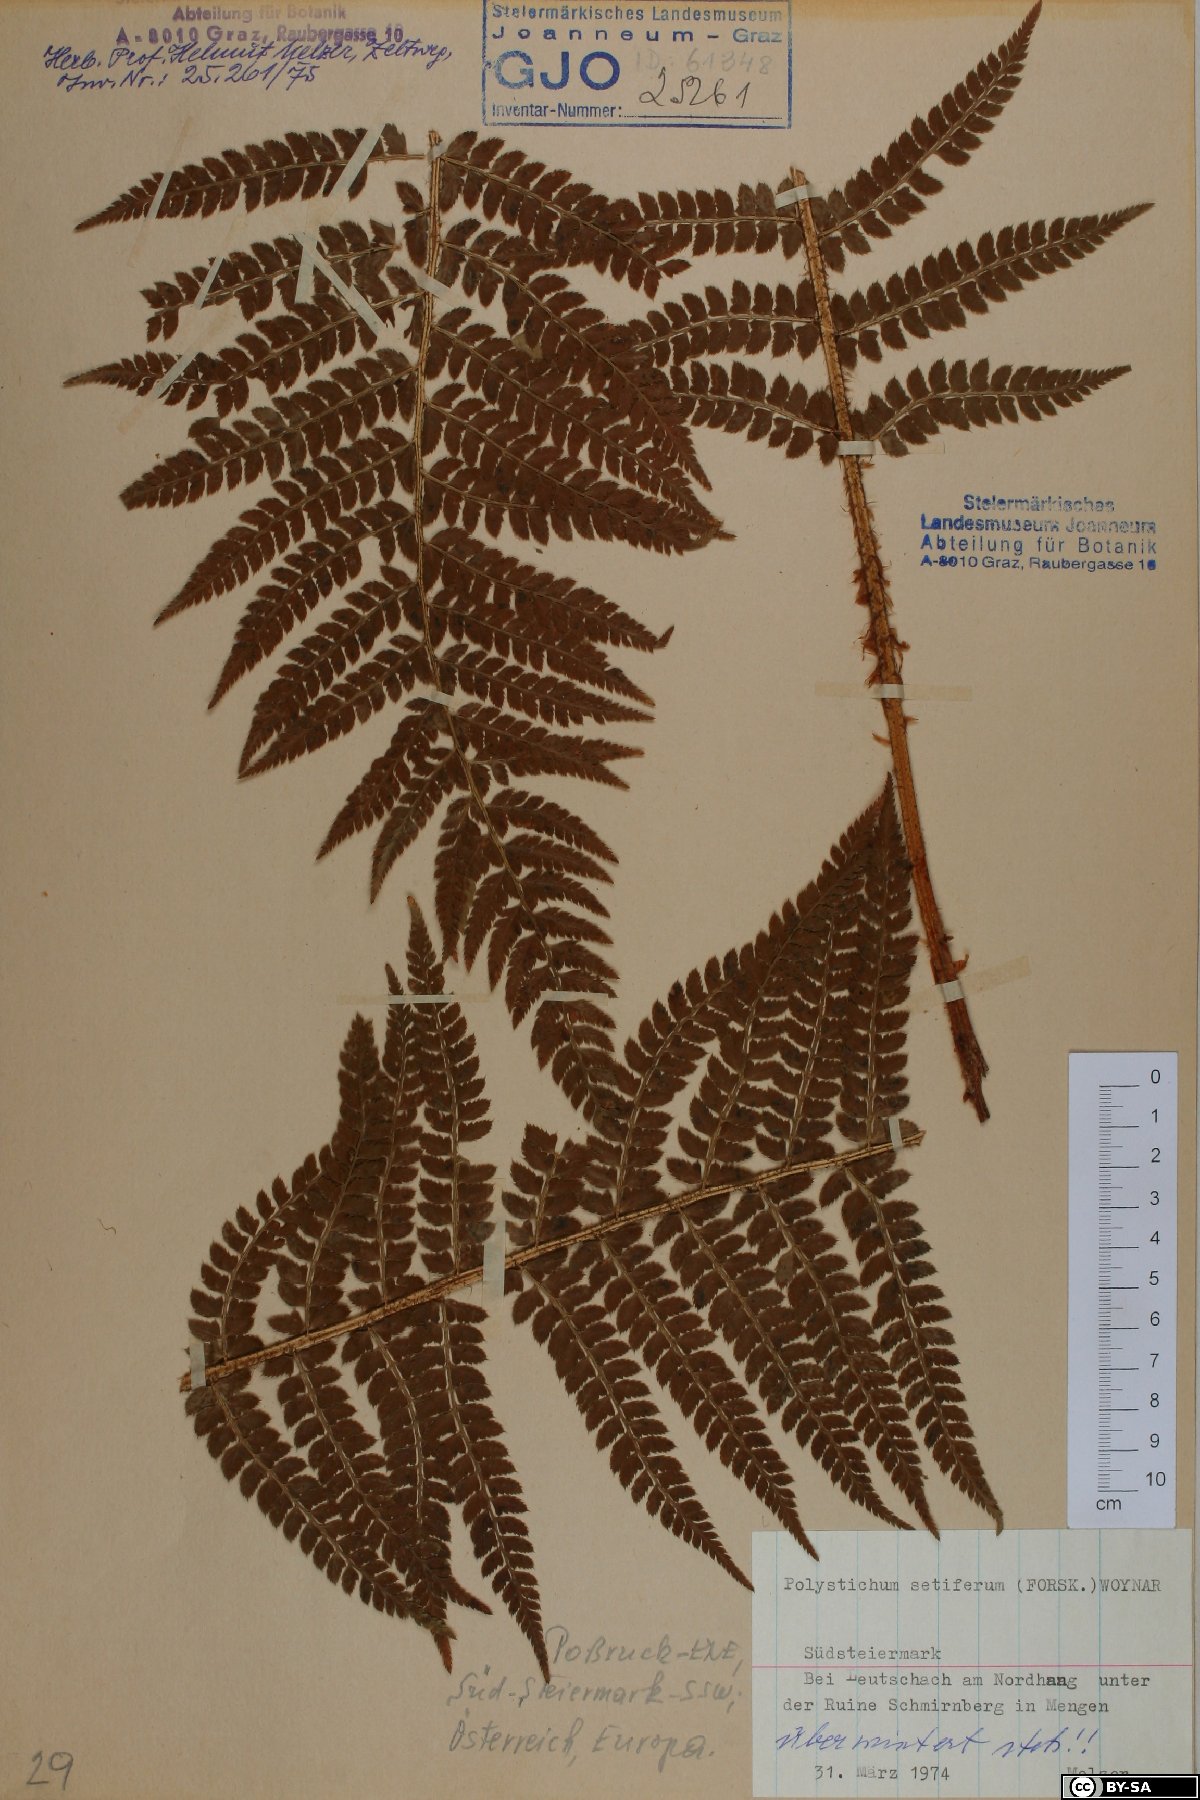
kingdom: Plantae
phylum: Tracheophyta
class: Polypodiopsida
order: Polypodiales
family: Dryopteridaceae
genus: Polystichum
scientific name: Polystichum setiferum
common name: Soft shield-fern
